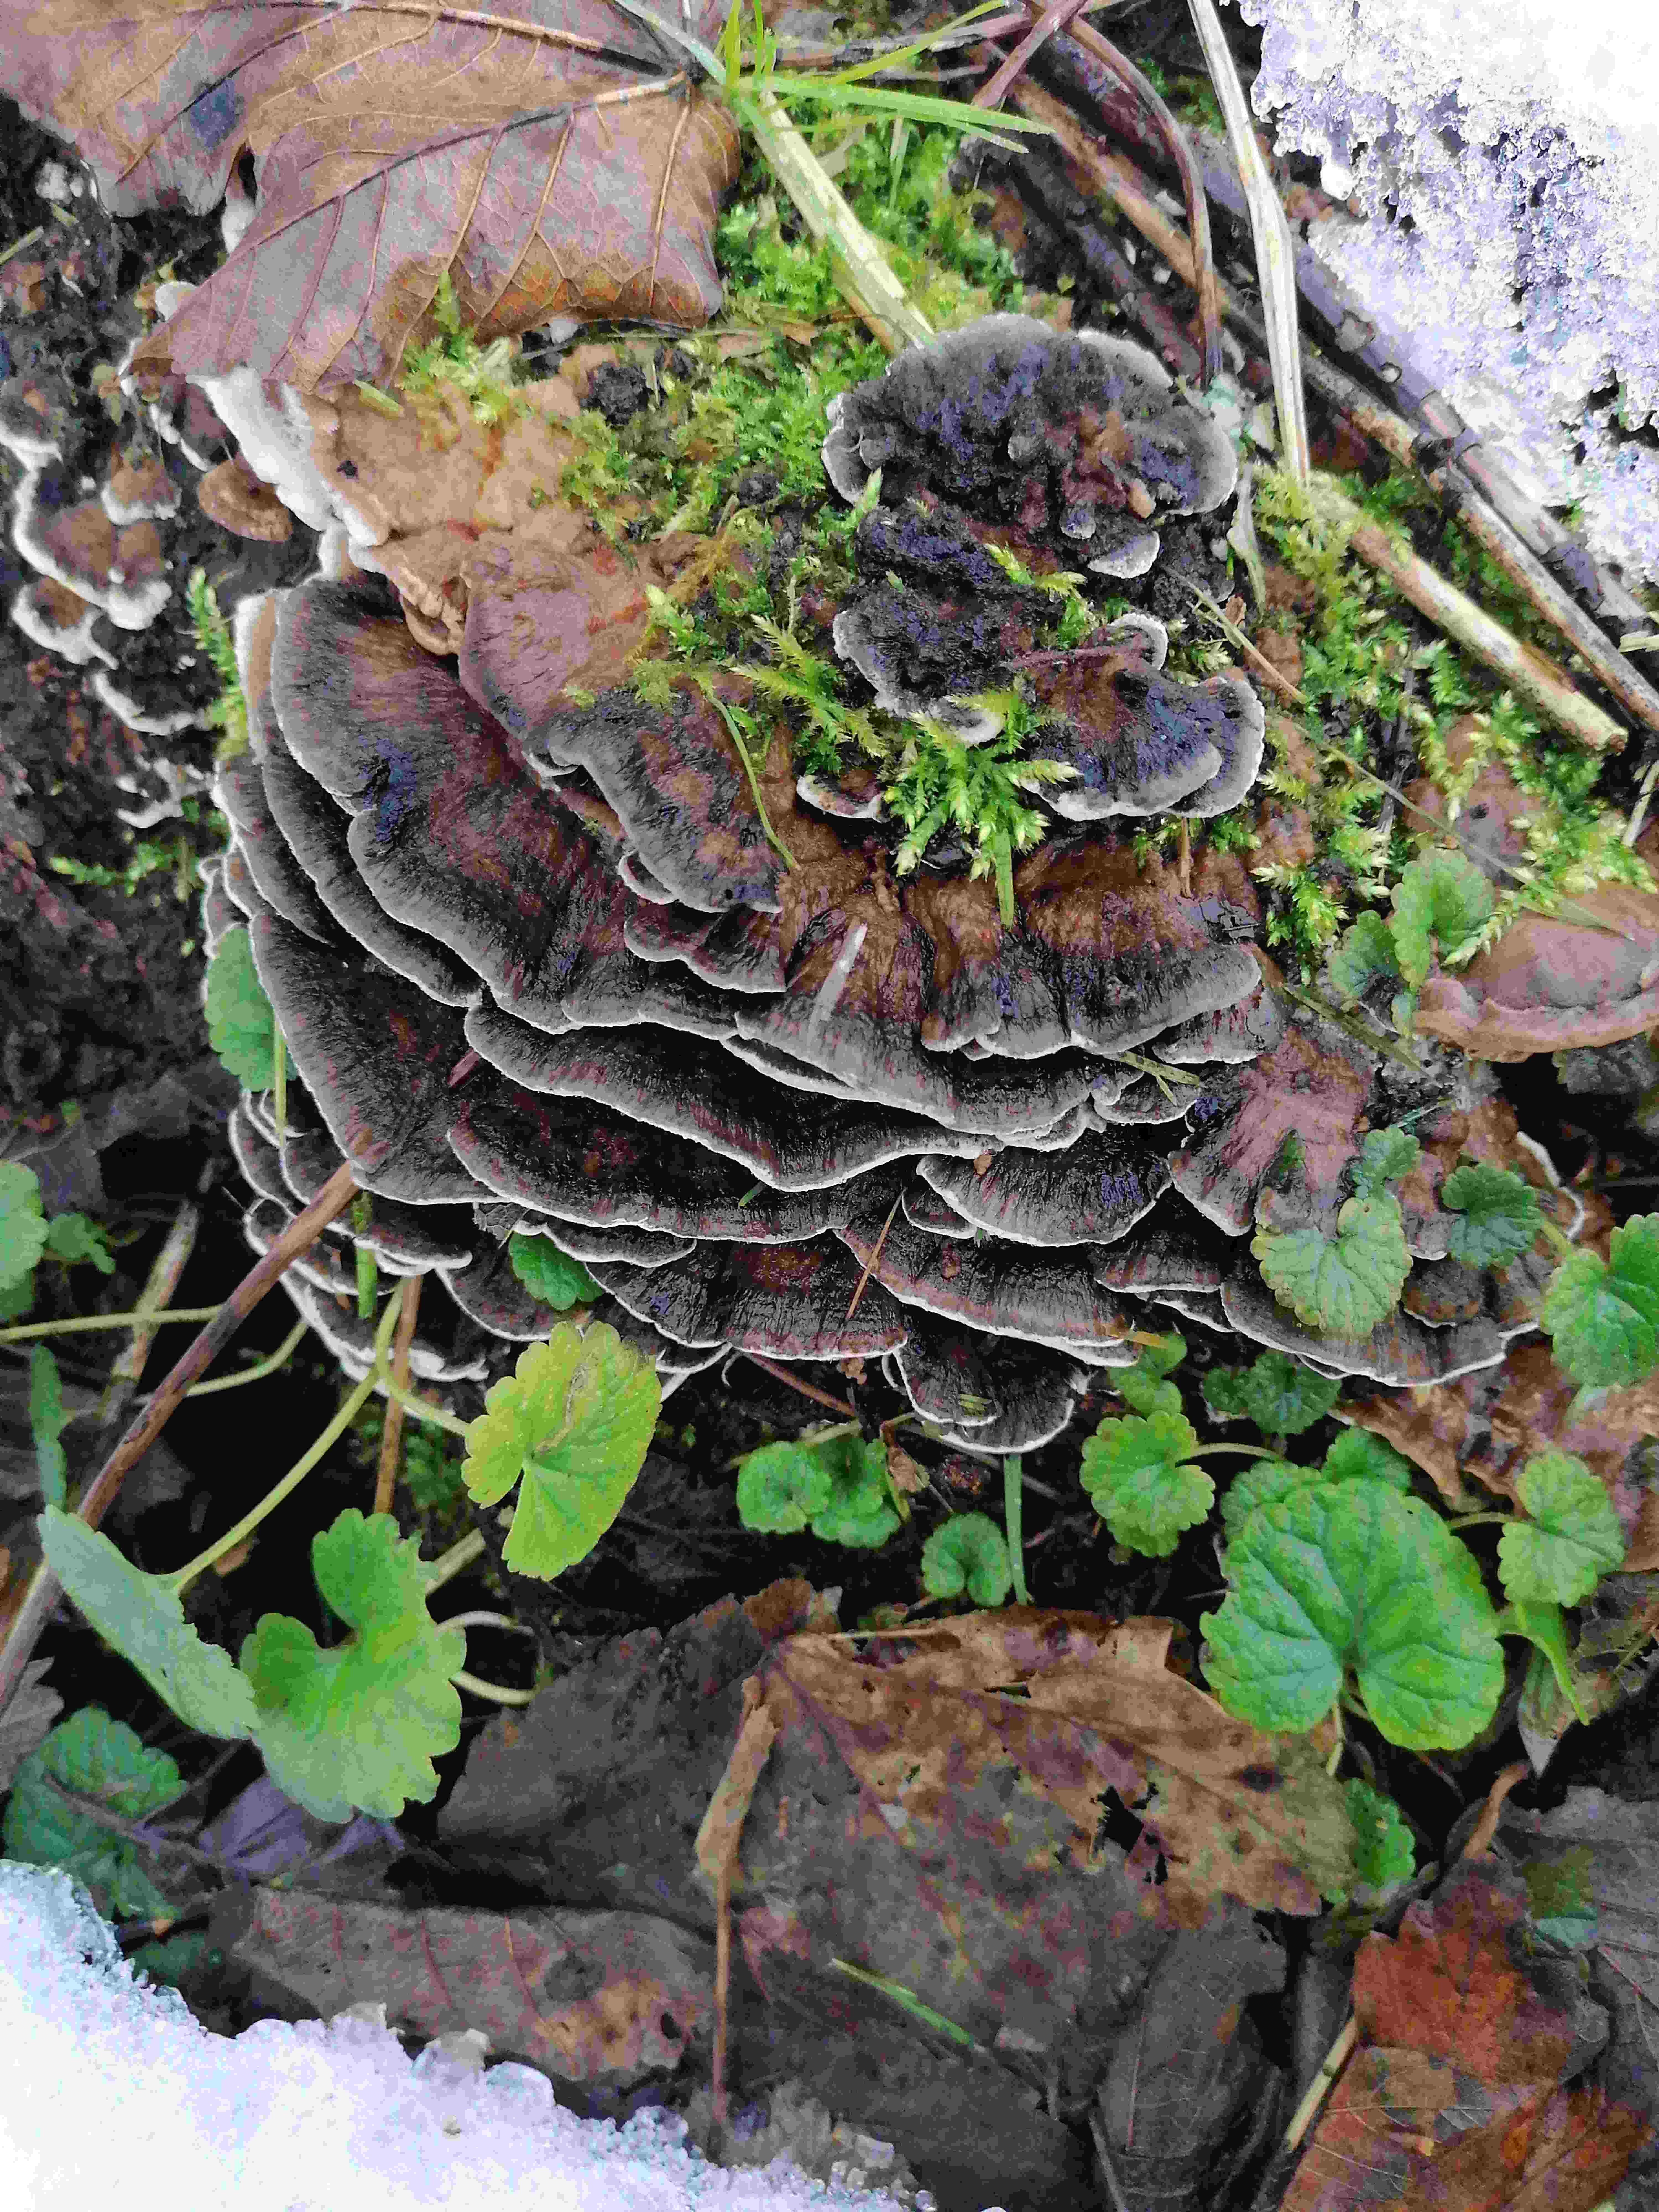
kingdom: Fungi
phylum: Basidiomycota
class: Agaricomycetes
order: Polyporales
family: Phanerochaetaceae
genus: Bjerkandera
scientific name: Bjerkandera adusta
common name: sveden sodporesvamp
